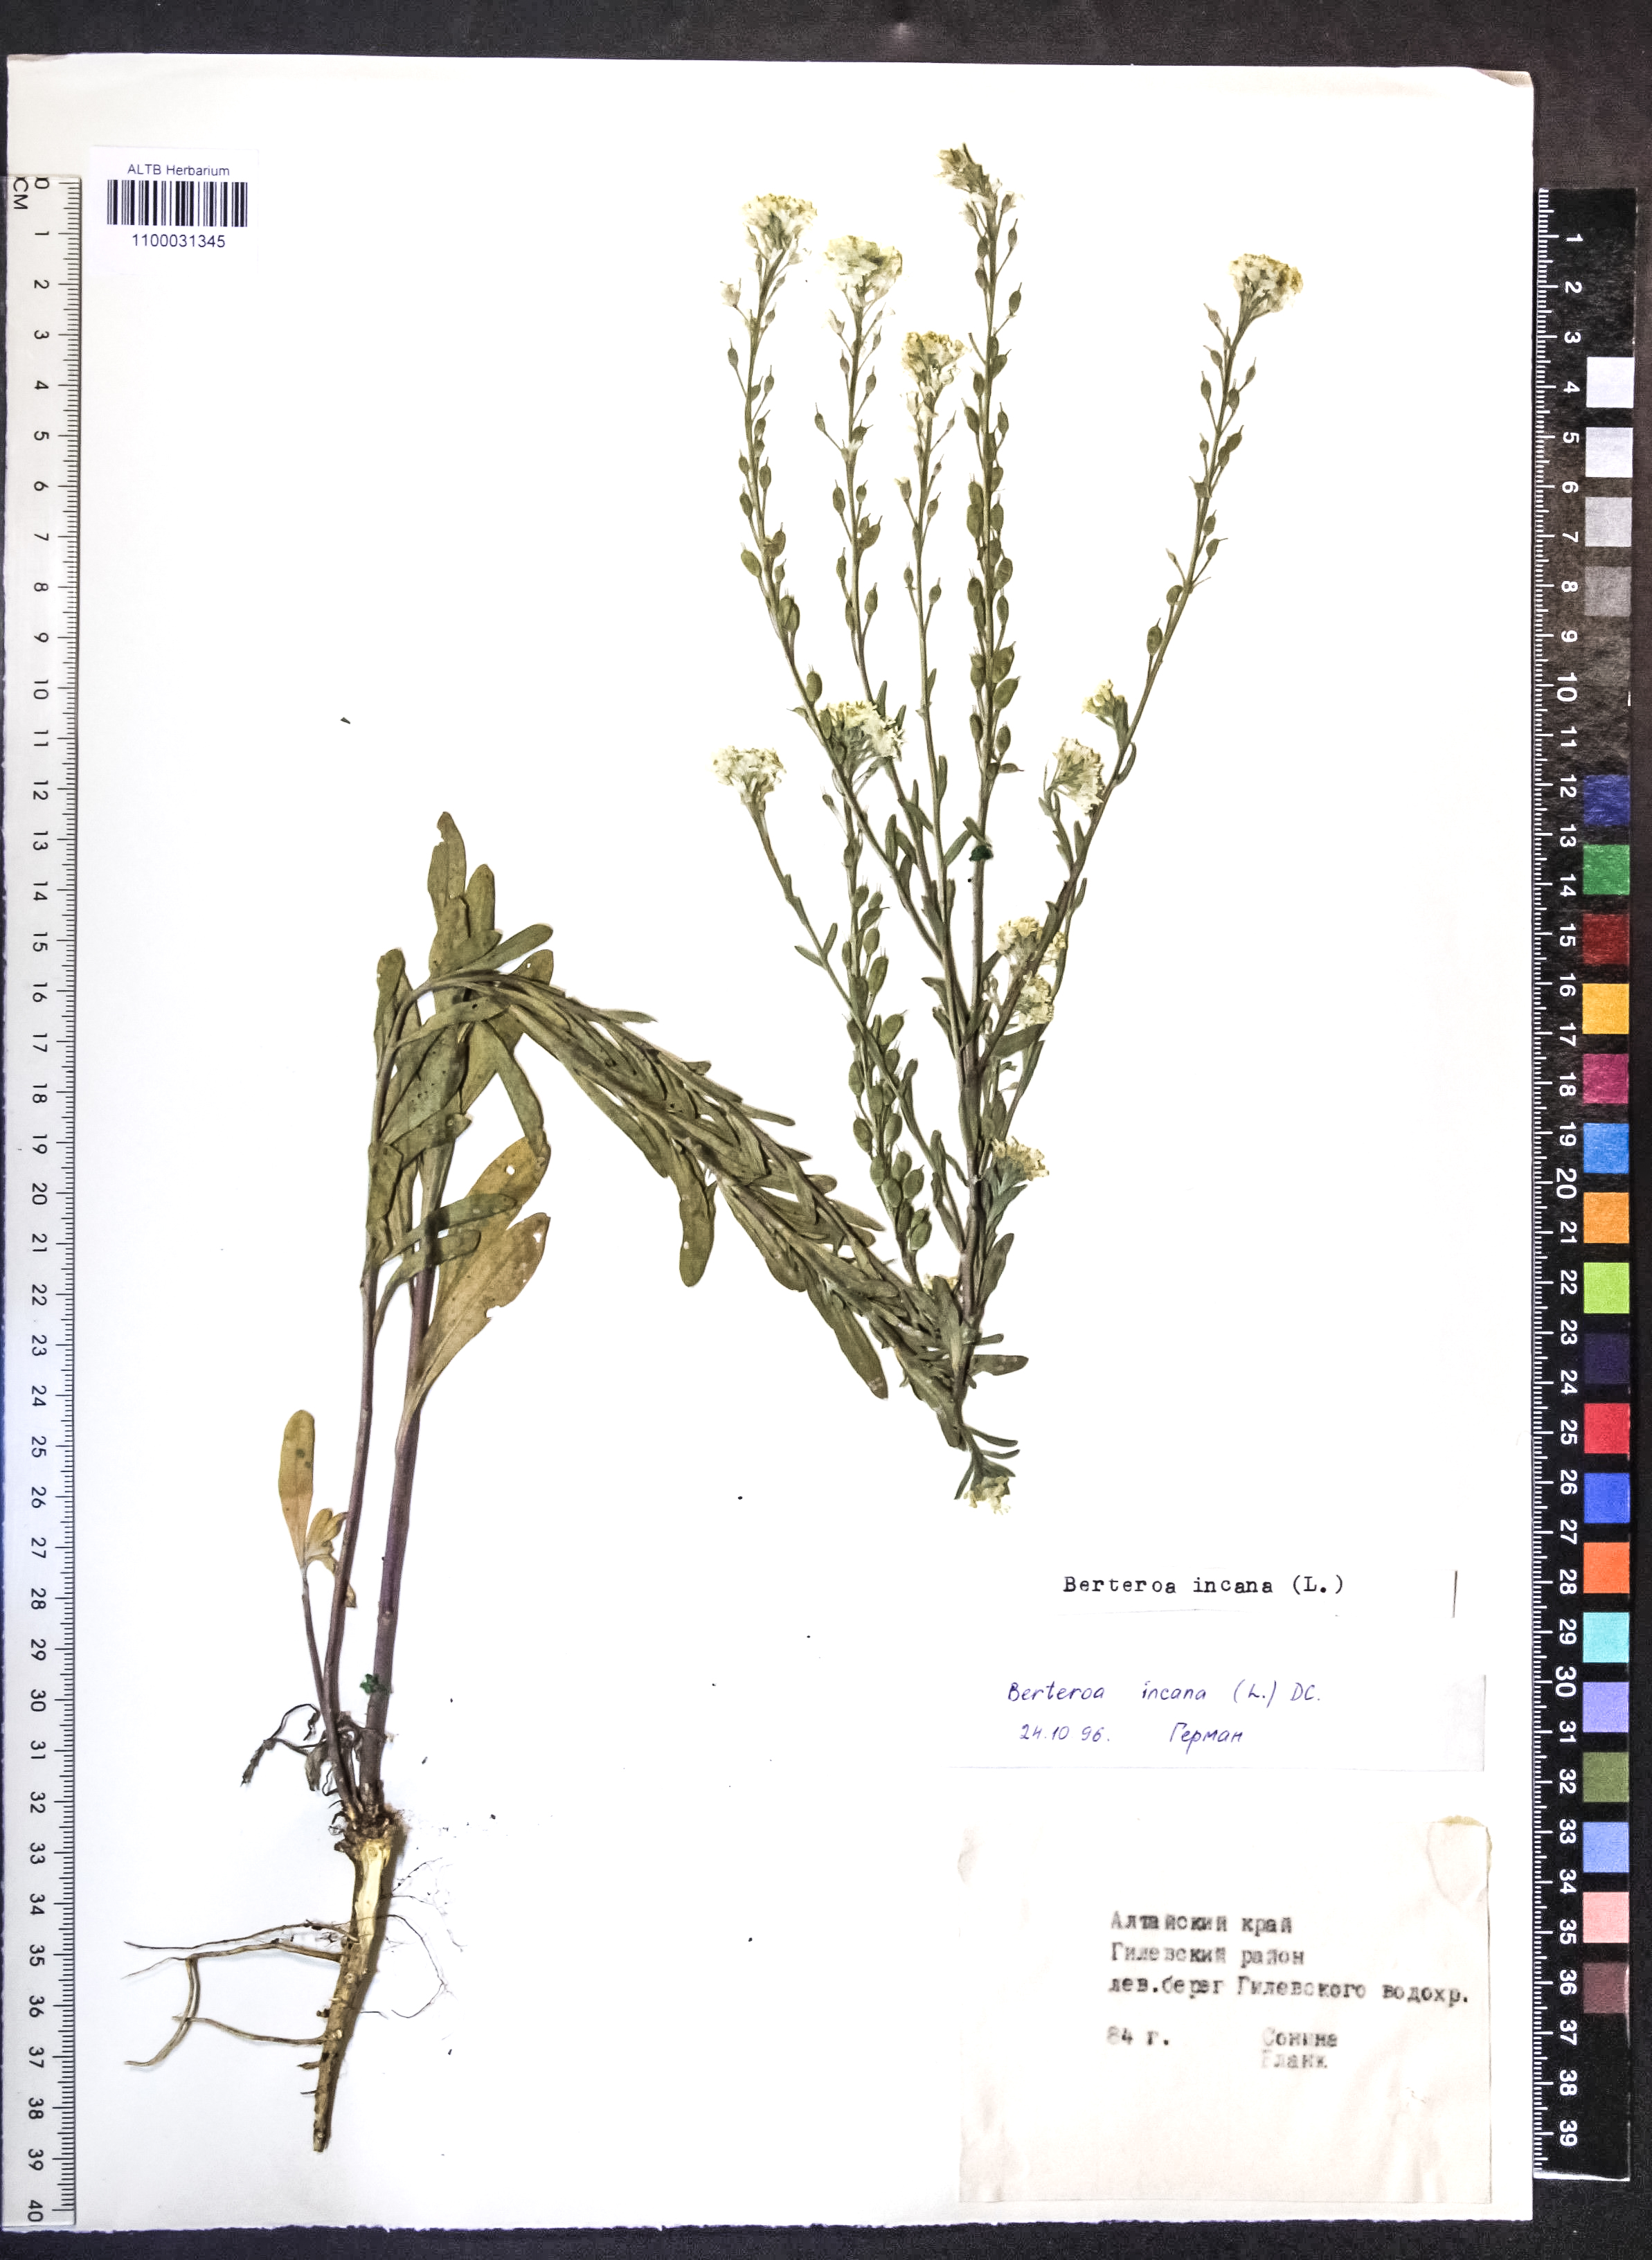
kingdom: Plantae
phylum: Tracheophyta
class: Magnoliopsida
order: Brassicales
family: Brassicaceae
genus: Berteroa
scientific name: Berteroa incana
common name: Hoary alison
